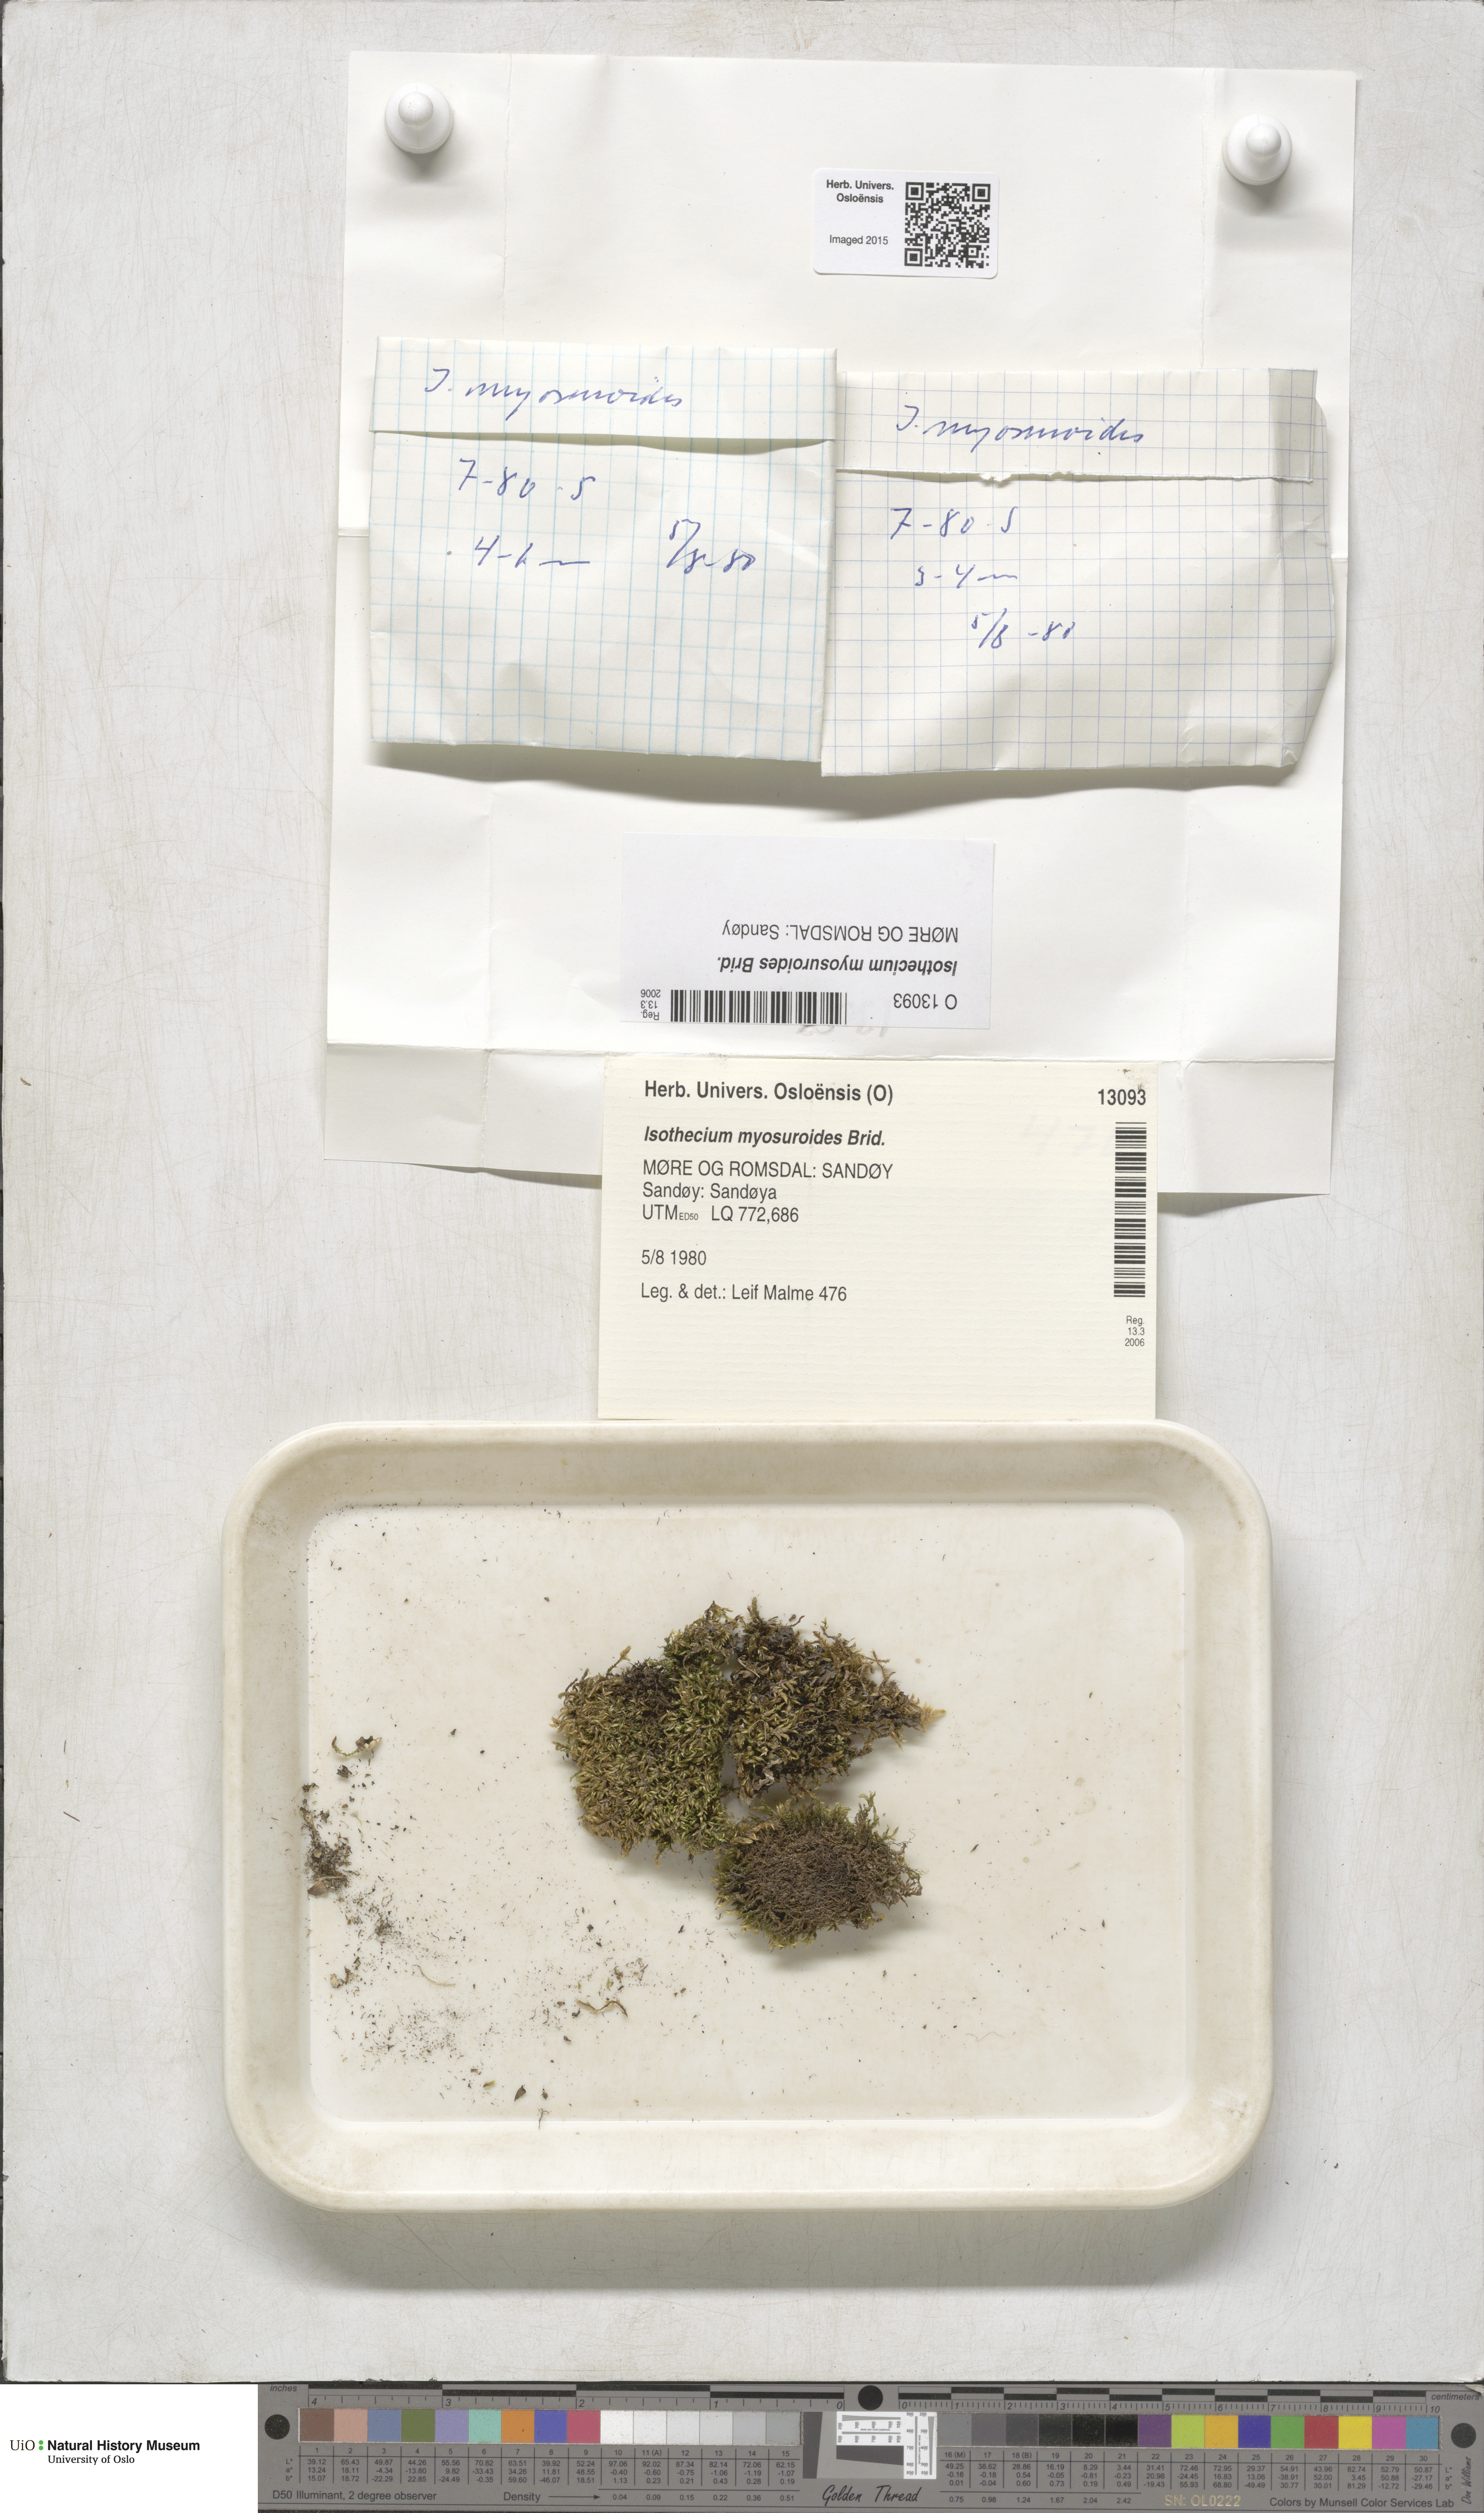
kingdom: Plantae
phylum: Bryophyta
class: Bryopsida
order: Hypnales
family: Lembophyllaceae
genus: Pseudisothecium
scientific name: Pseudisothecium myosuroides
